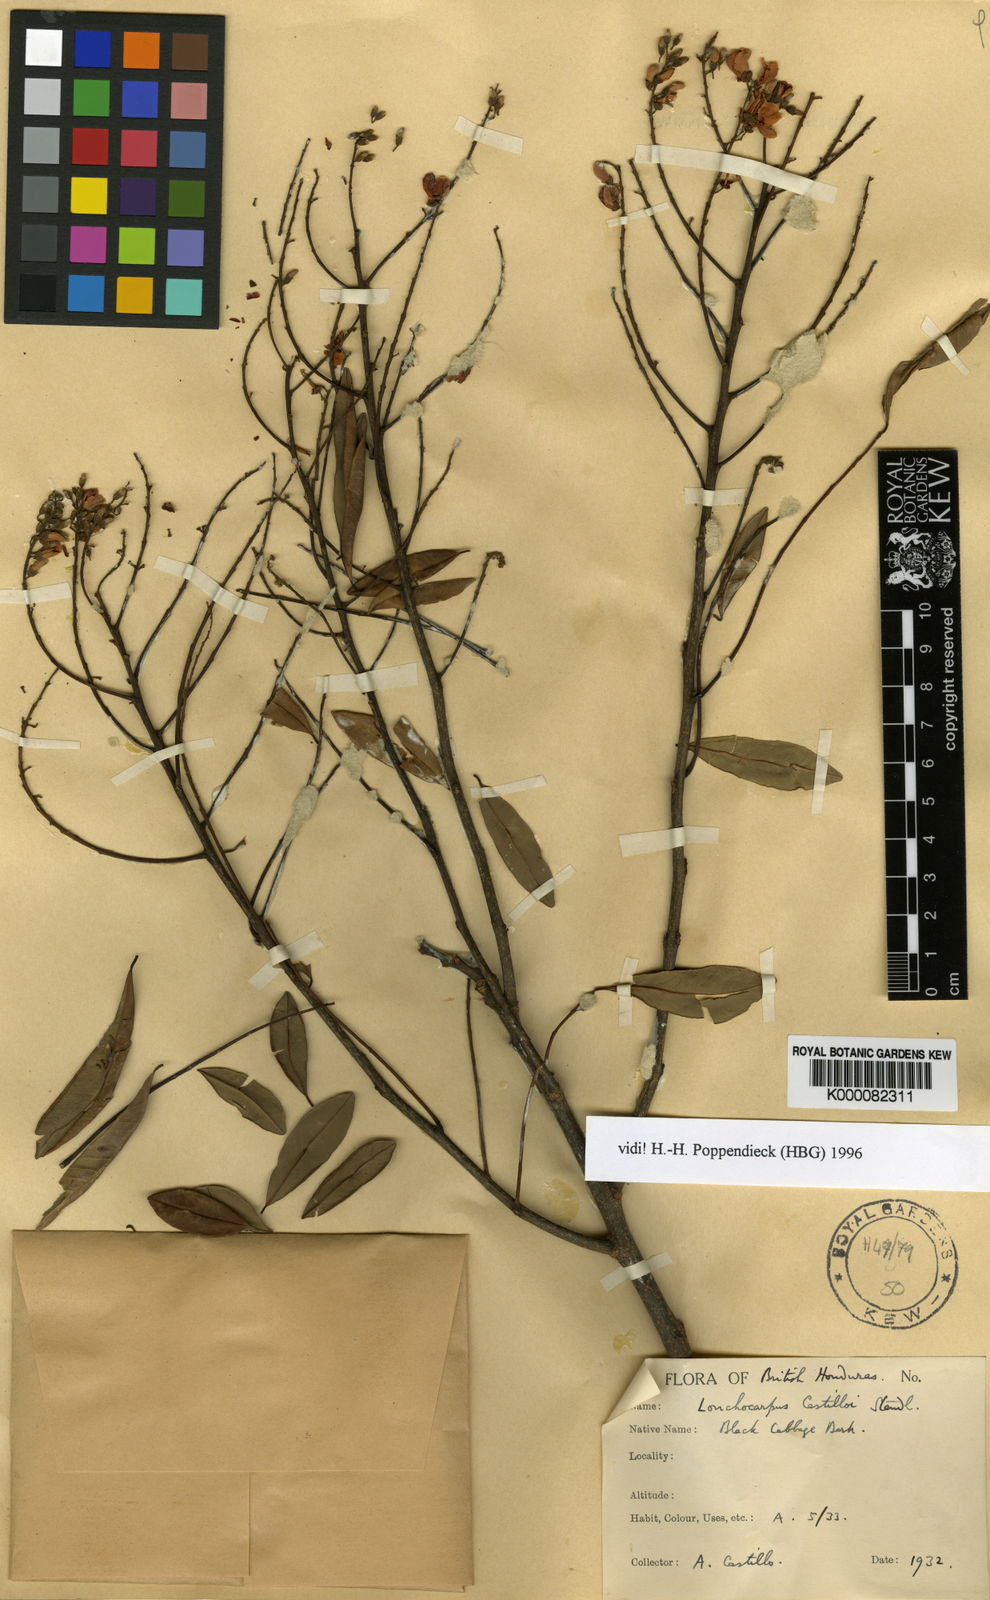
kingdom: Plantae
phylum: Tracheophyta
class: Magnoliopsida
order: Fabales
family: Fabaceae
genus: Lonchocarpus
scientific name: Lonchocarpus castilloi
